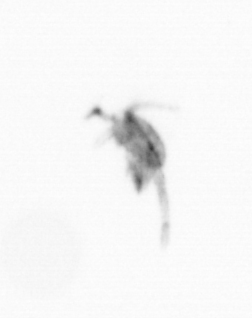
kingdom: Animalia
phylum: Arthropoda
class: Copepoda
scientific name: Copepoda
